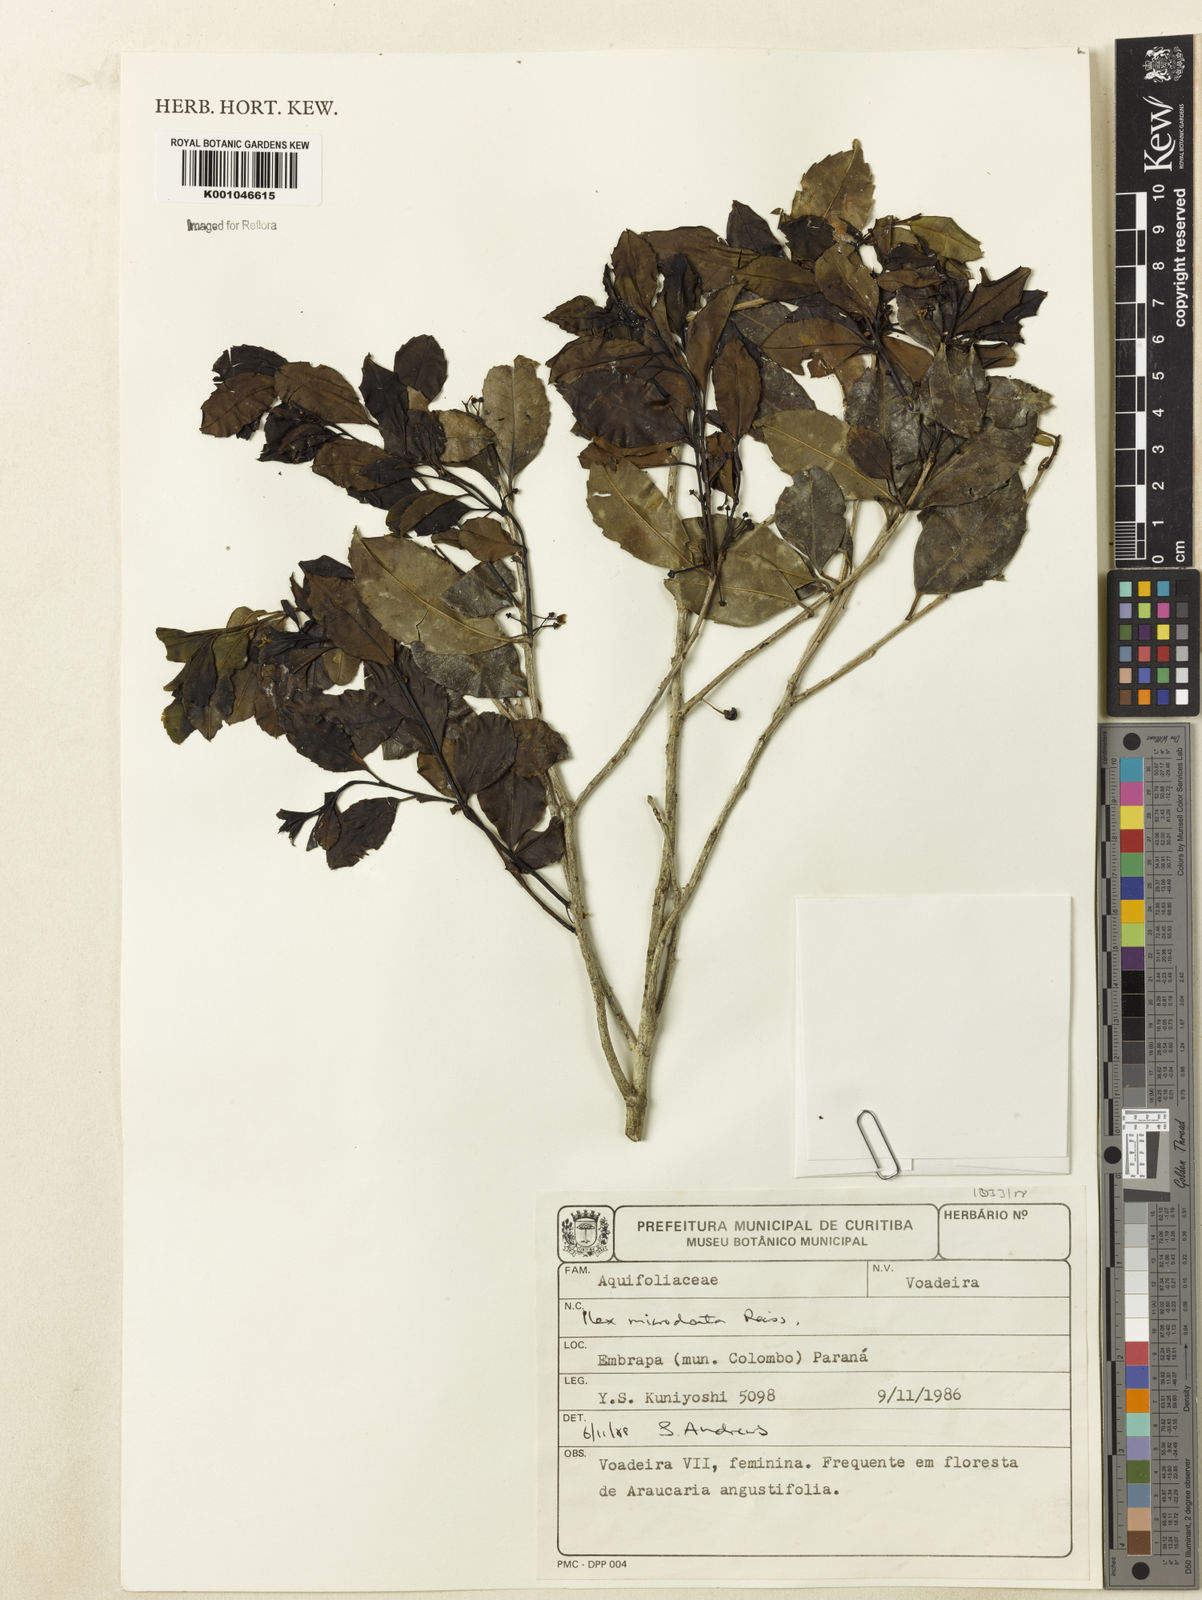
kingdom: Plantae
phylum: Tracheophyta
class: Magnoliopsida
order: Aquifoliales
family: Aquifoliaceae
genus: Ilex
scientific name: Ilex microdonta
